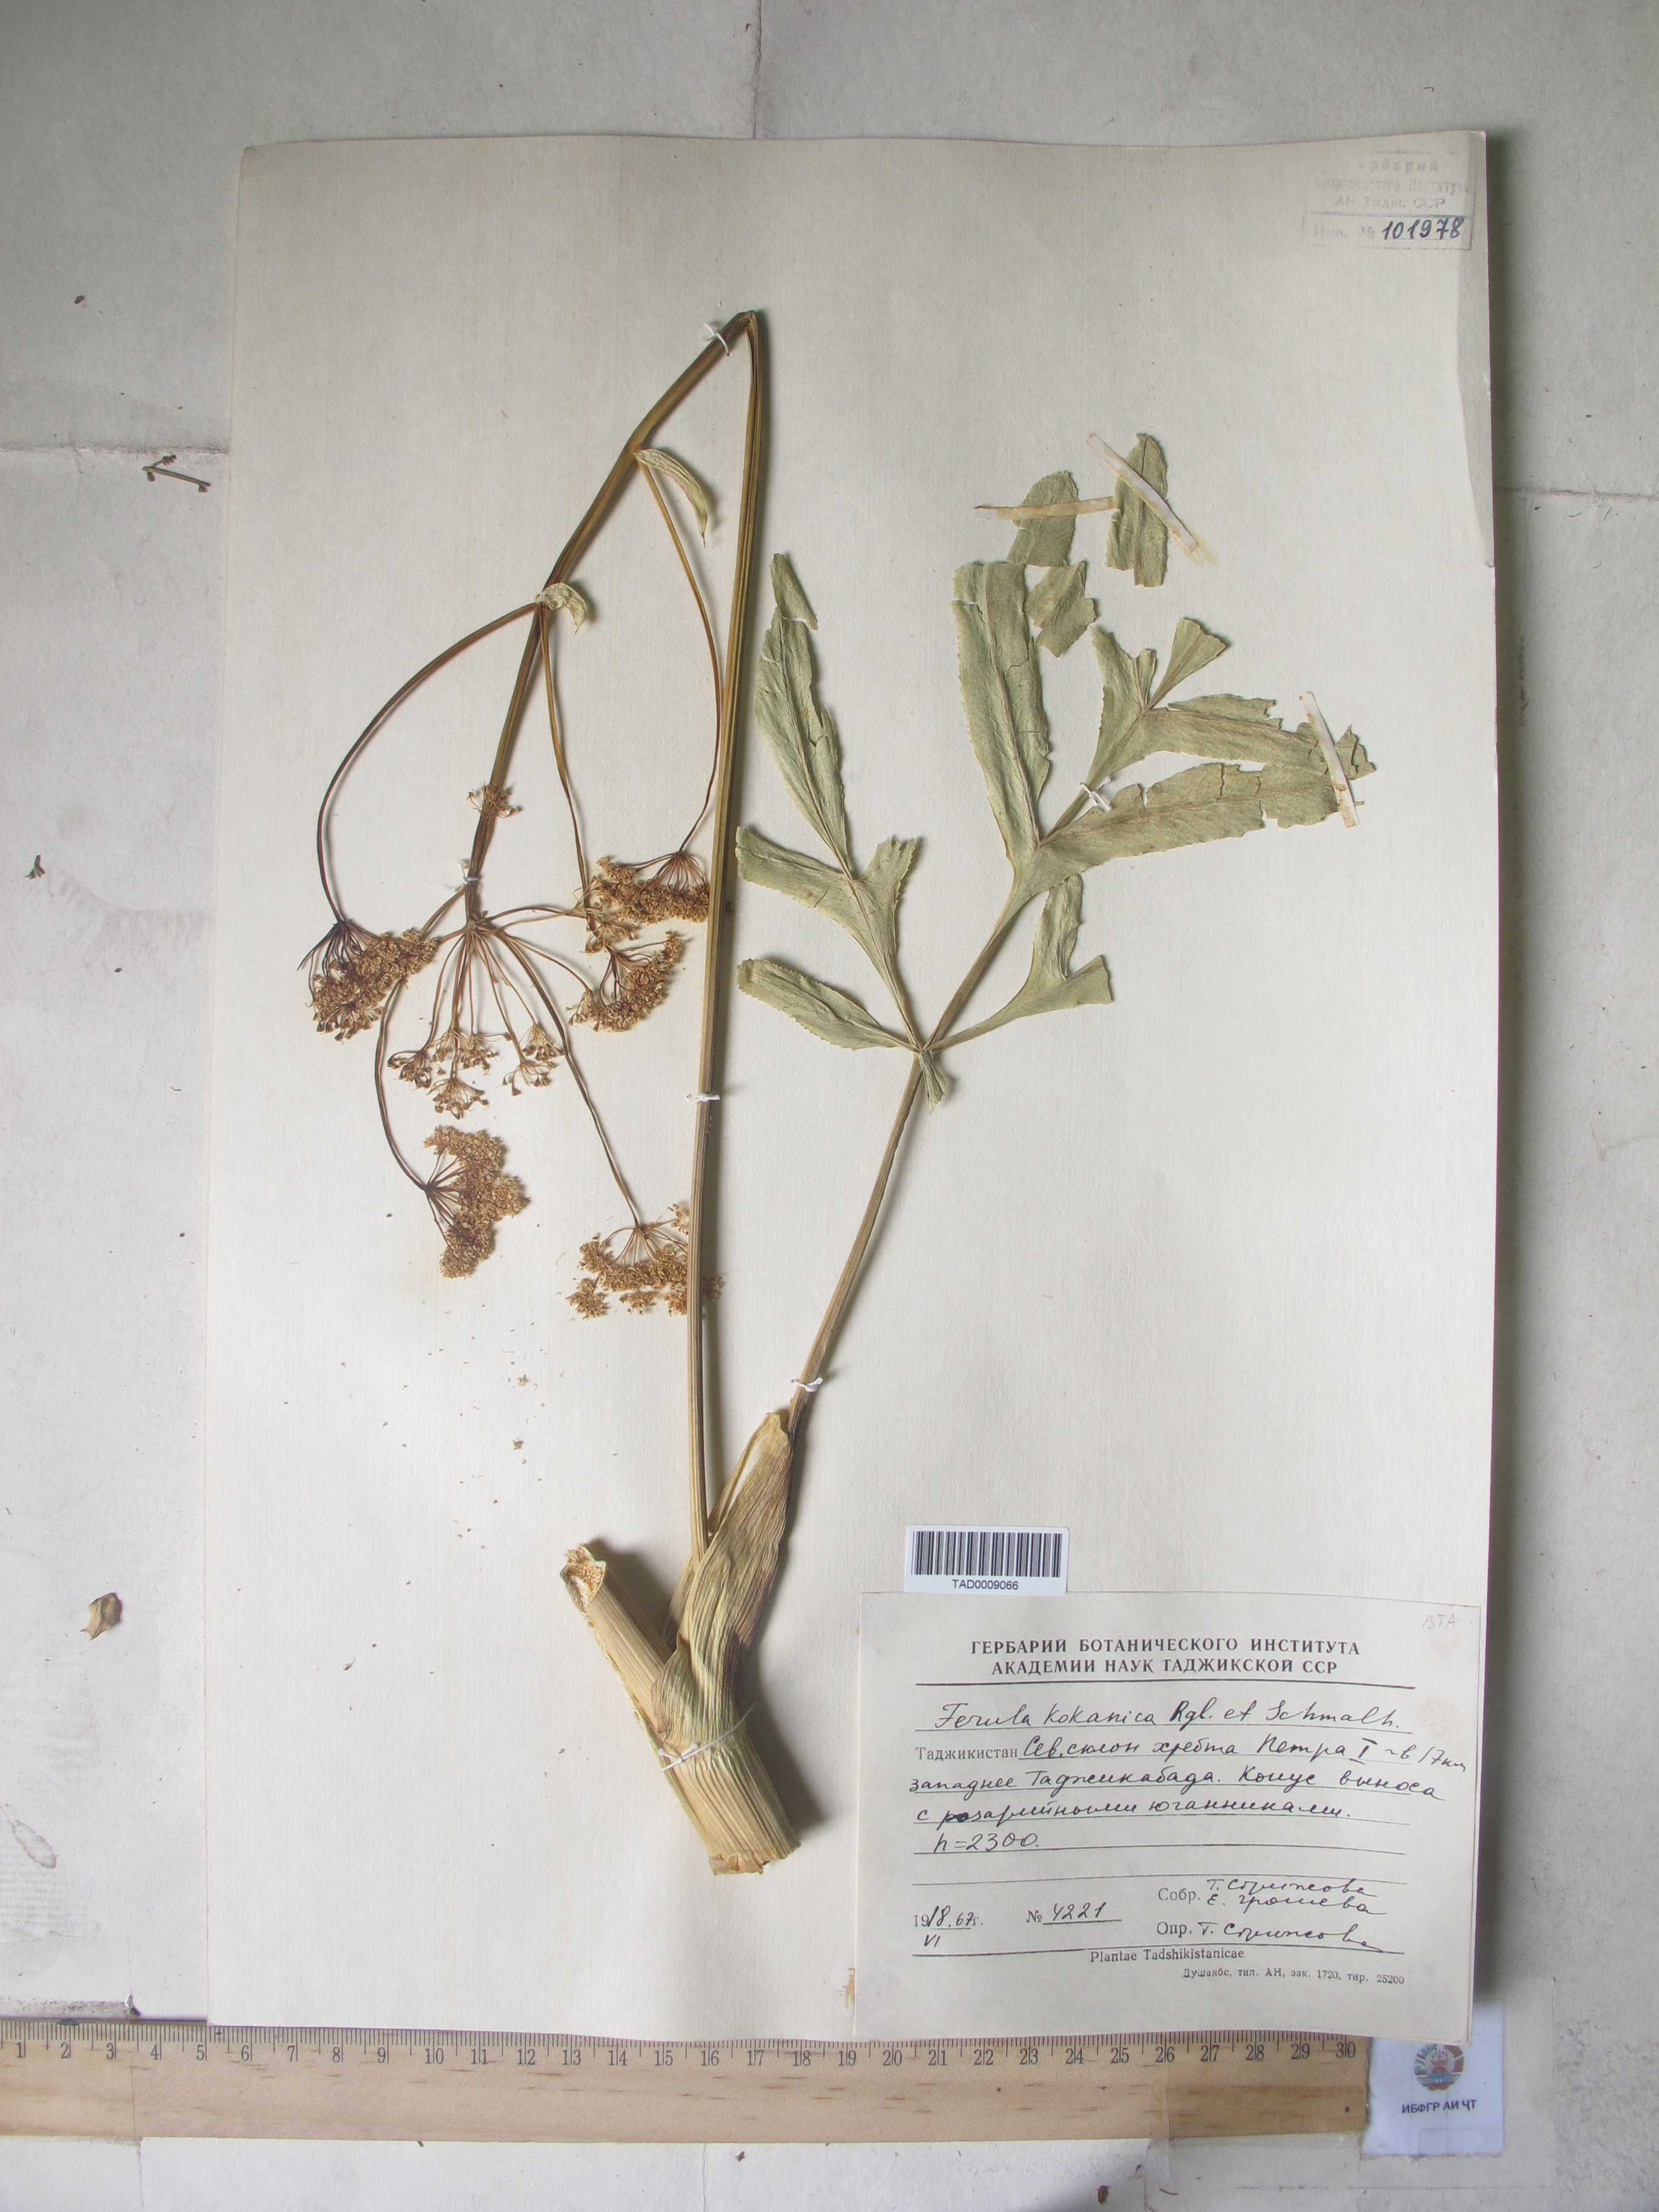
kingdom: Plantae
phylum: Tracheophyta
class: Magnoliopsida
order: Apiales
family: Apiaceae
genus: Ferula
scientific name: Ferula kokanica
